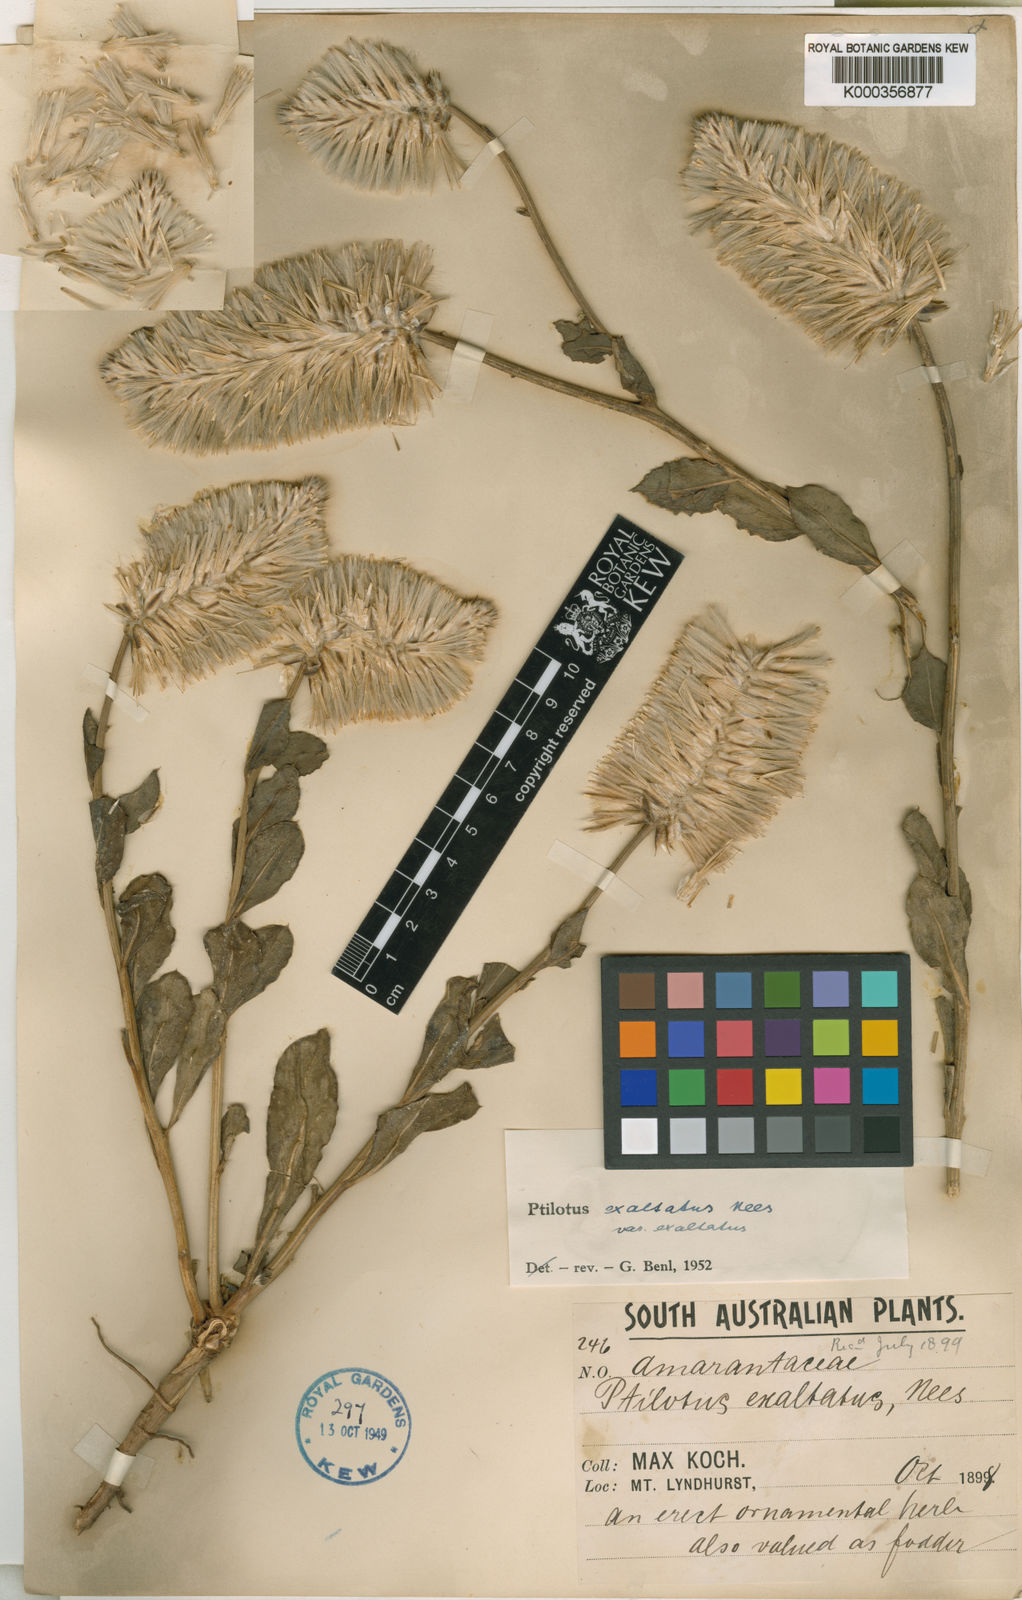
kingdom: Plantae
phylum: Tracheophyta
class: Magnoliopsida
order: Caryophyllales
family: Amaranthaceae
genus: Ptilotus
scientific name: Ptilotus
